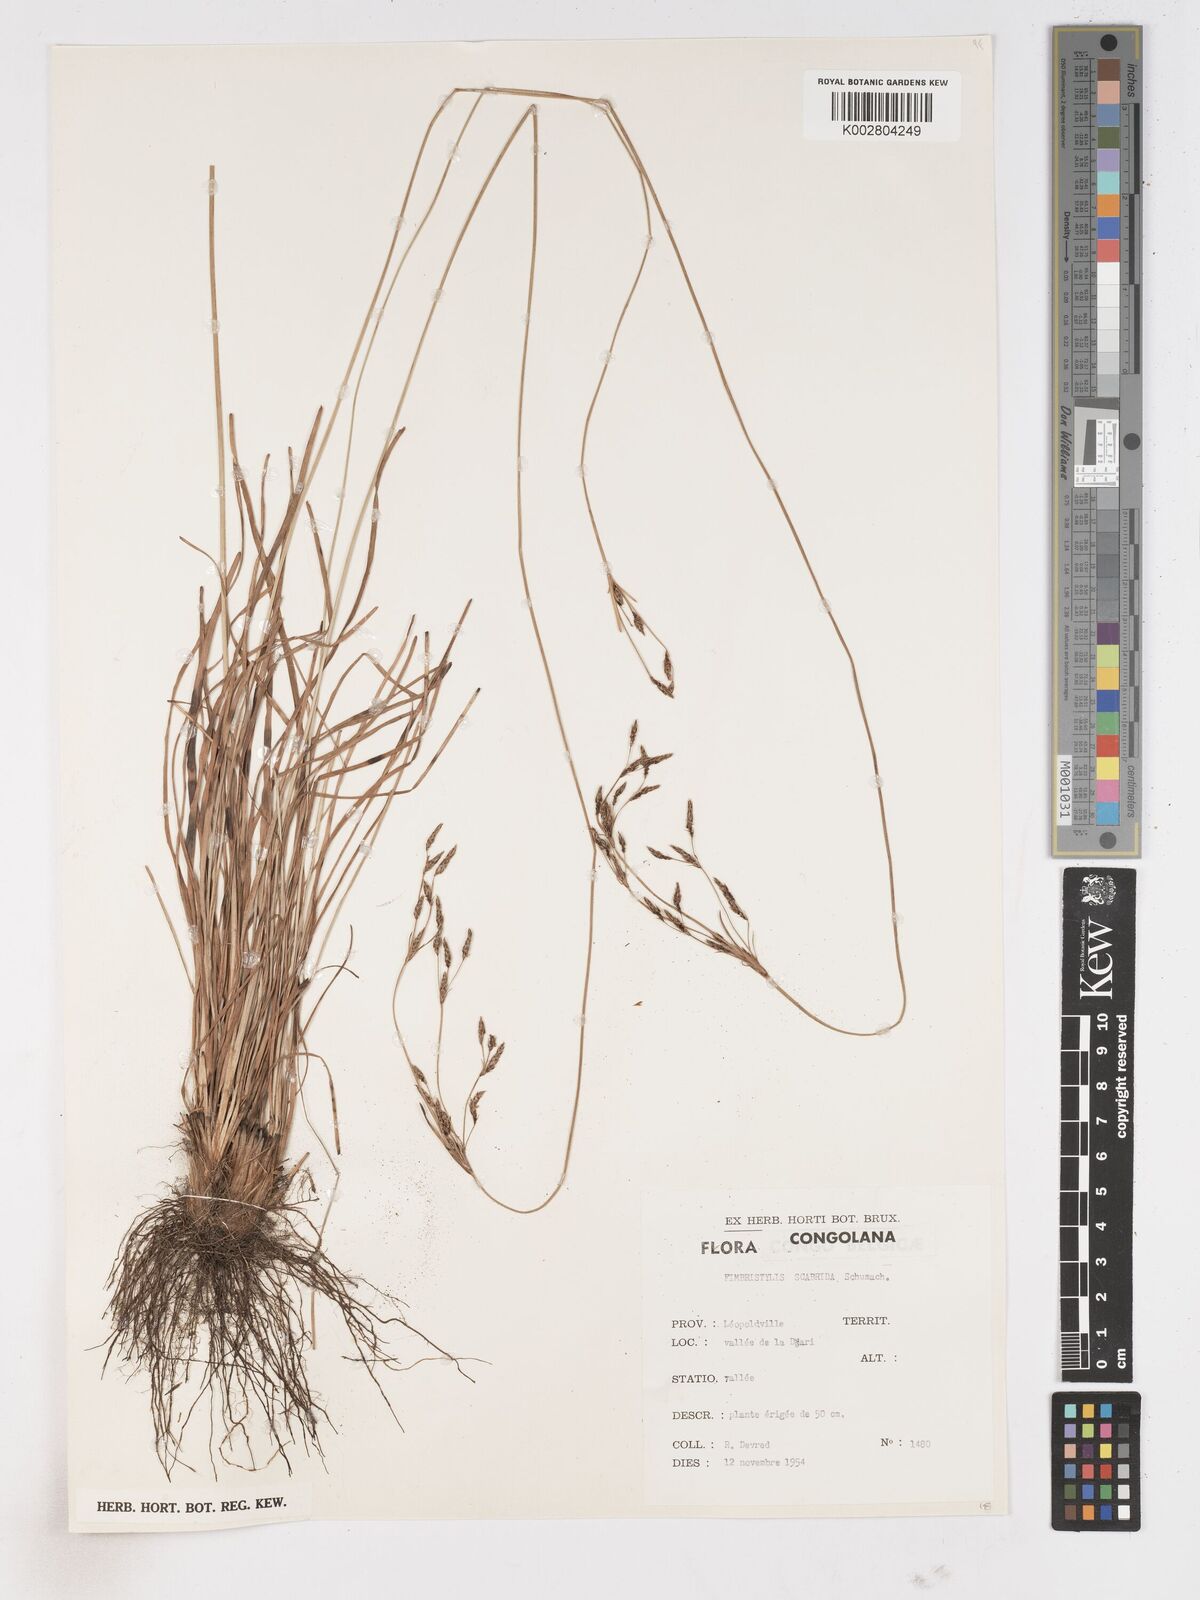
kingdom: Plantae
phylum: Tracheophyta
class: Liliopsida
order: Poales
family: Cyperaceae
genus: Fimbristylis
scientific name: Fimbristylis scabrida
